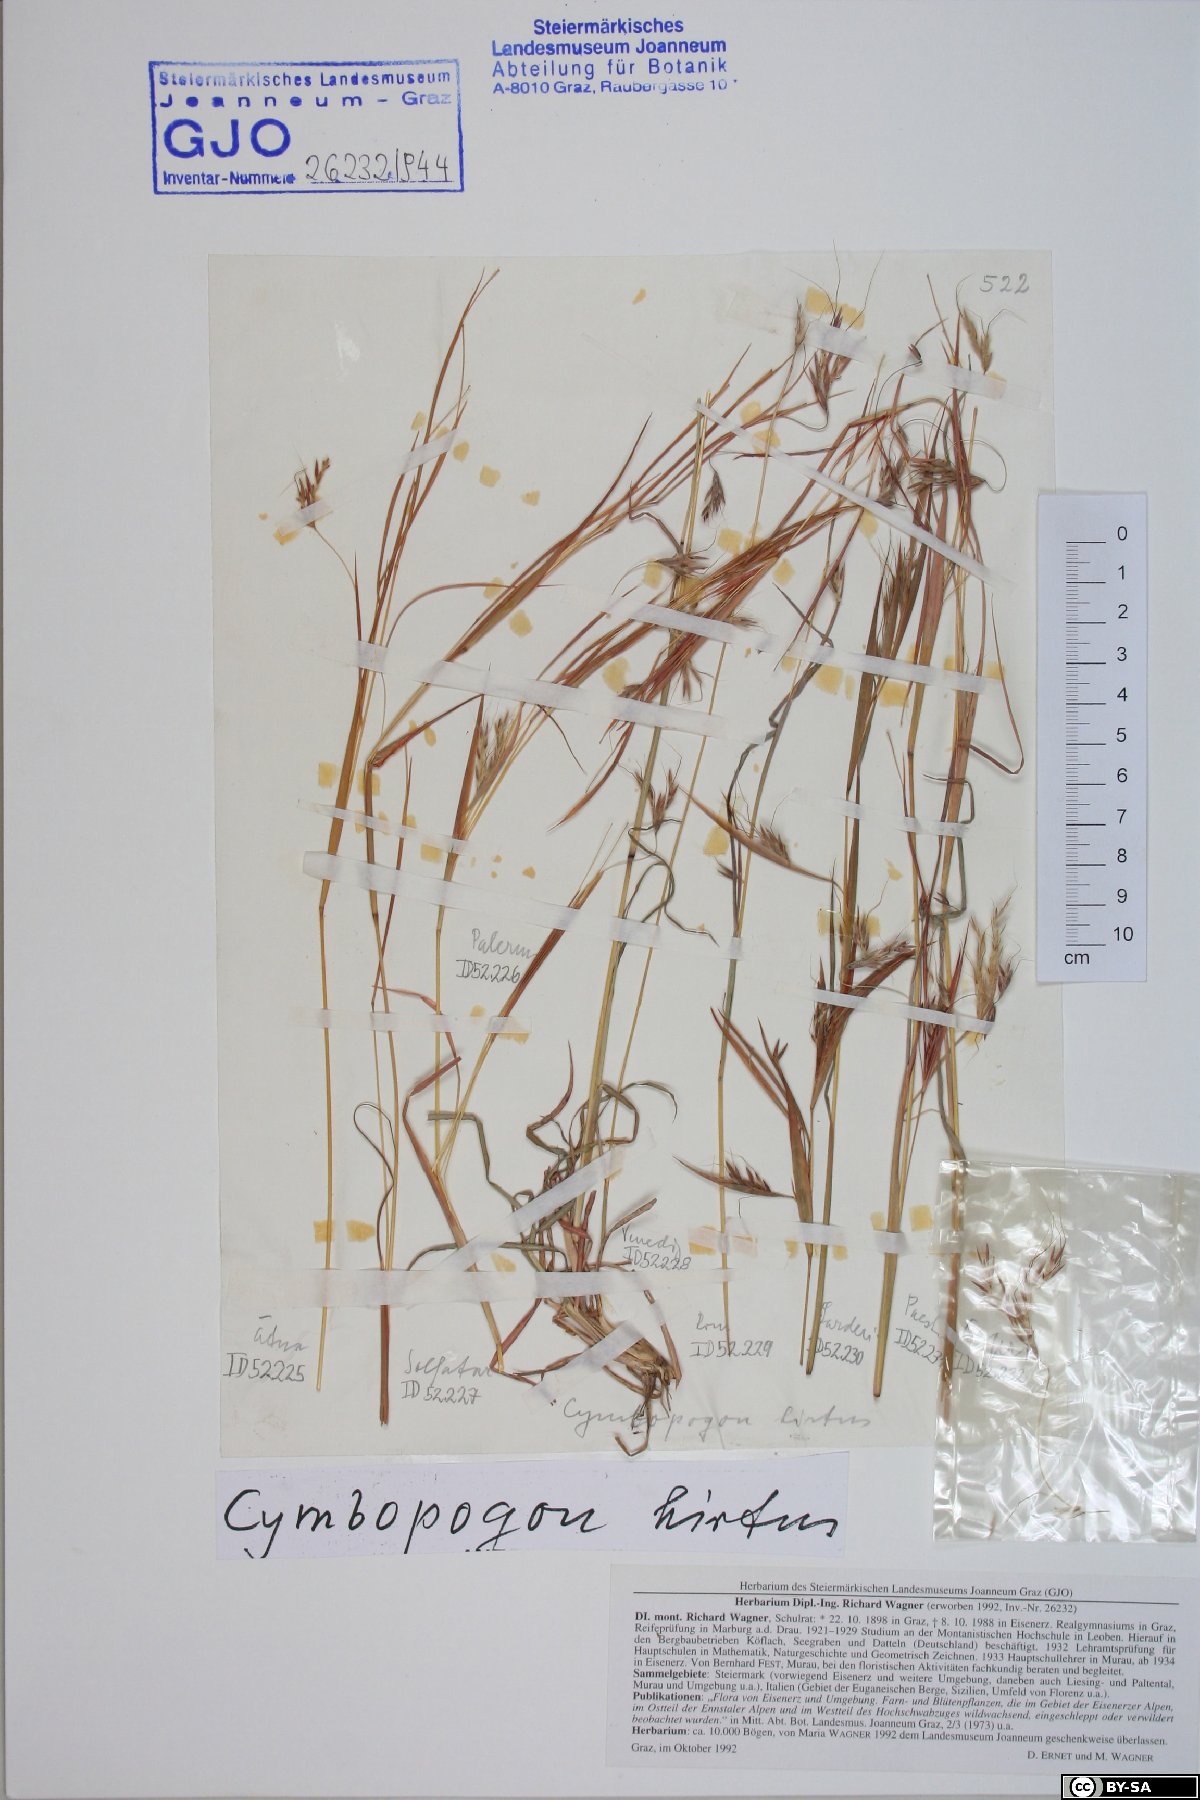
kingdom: Plantae
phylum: Tracheophyta
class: Liliopsida
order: Poales
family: Poaceae
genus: Hyparrhenia
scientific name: Hyparrhenia hirta
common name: Thatching grass
